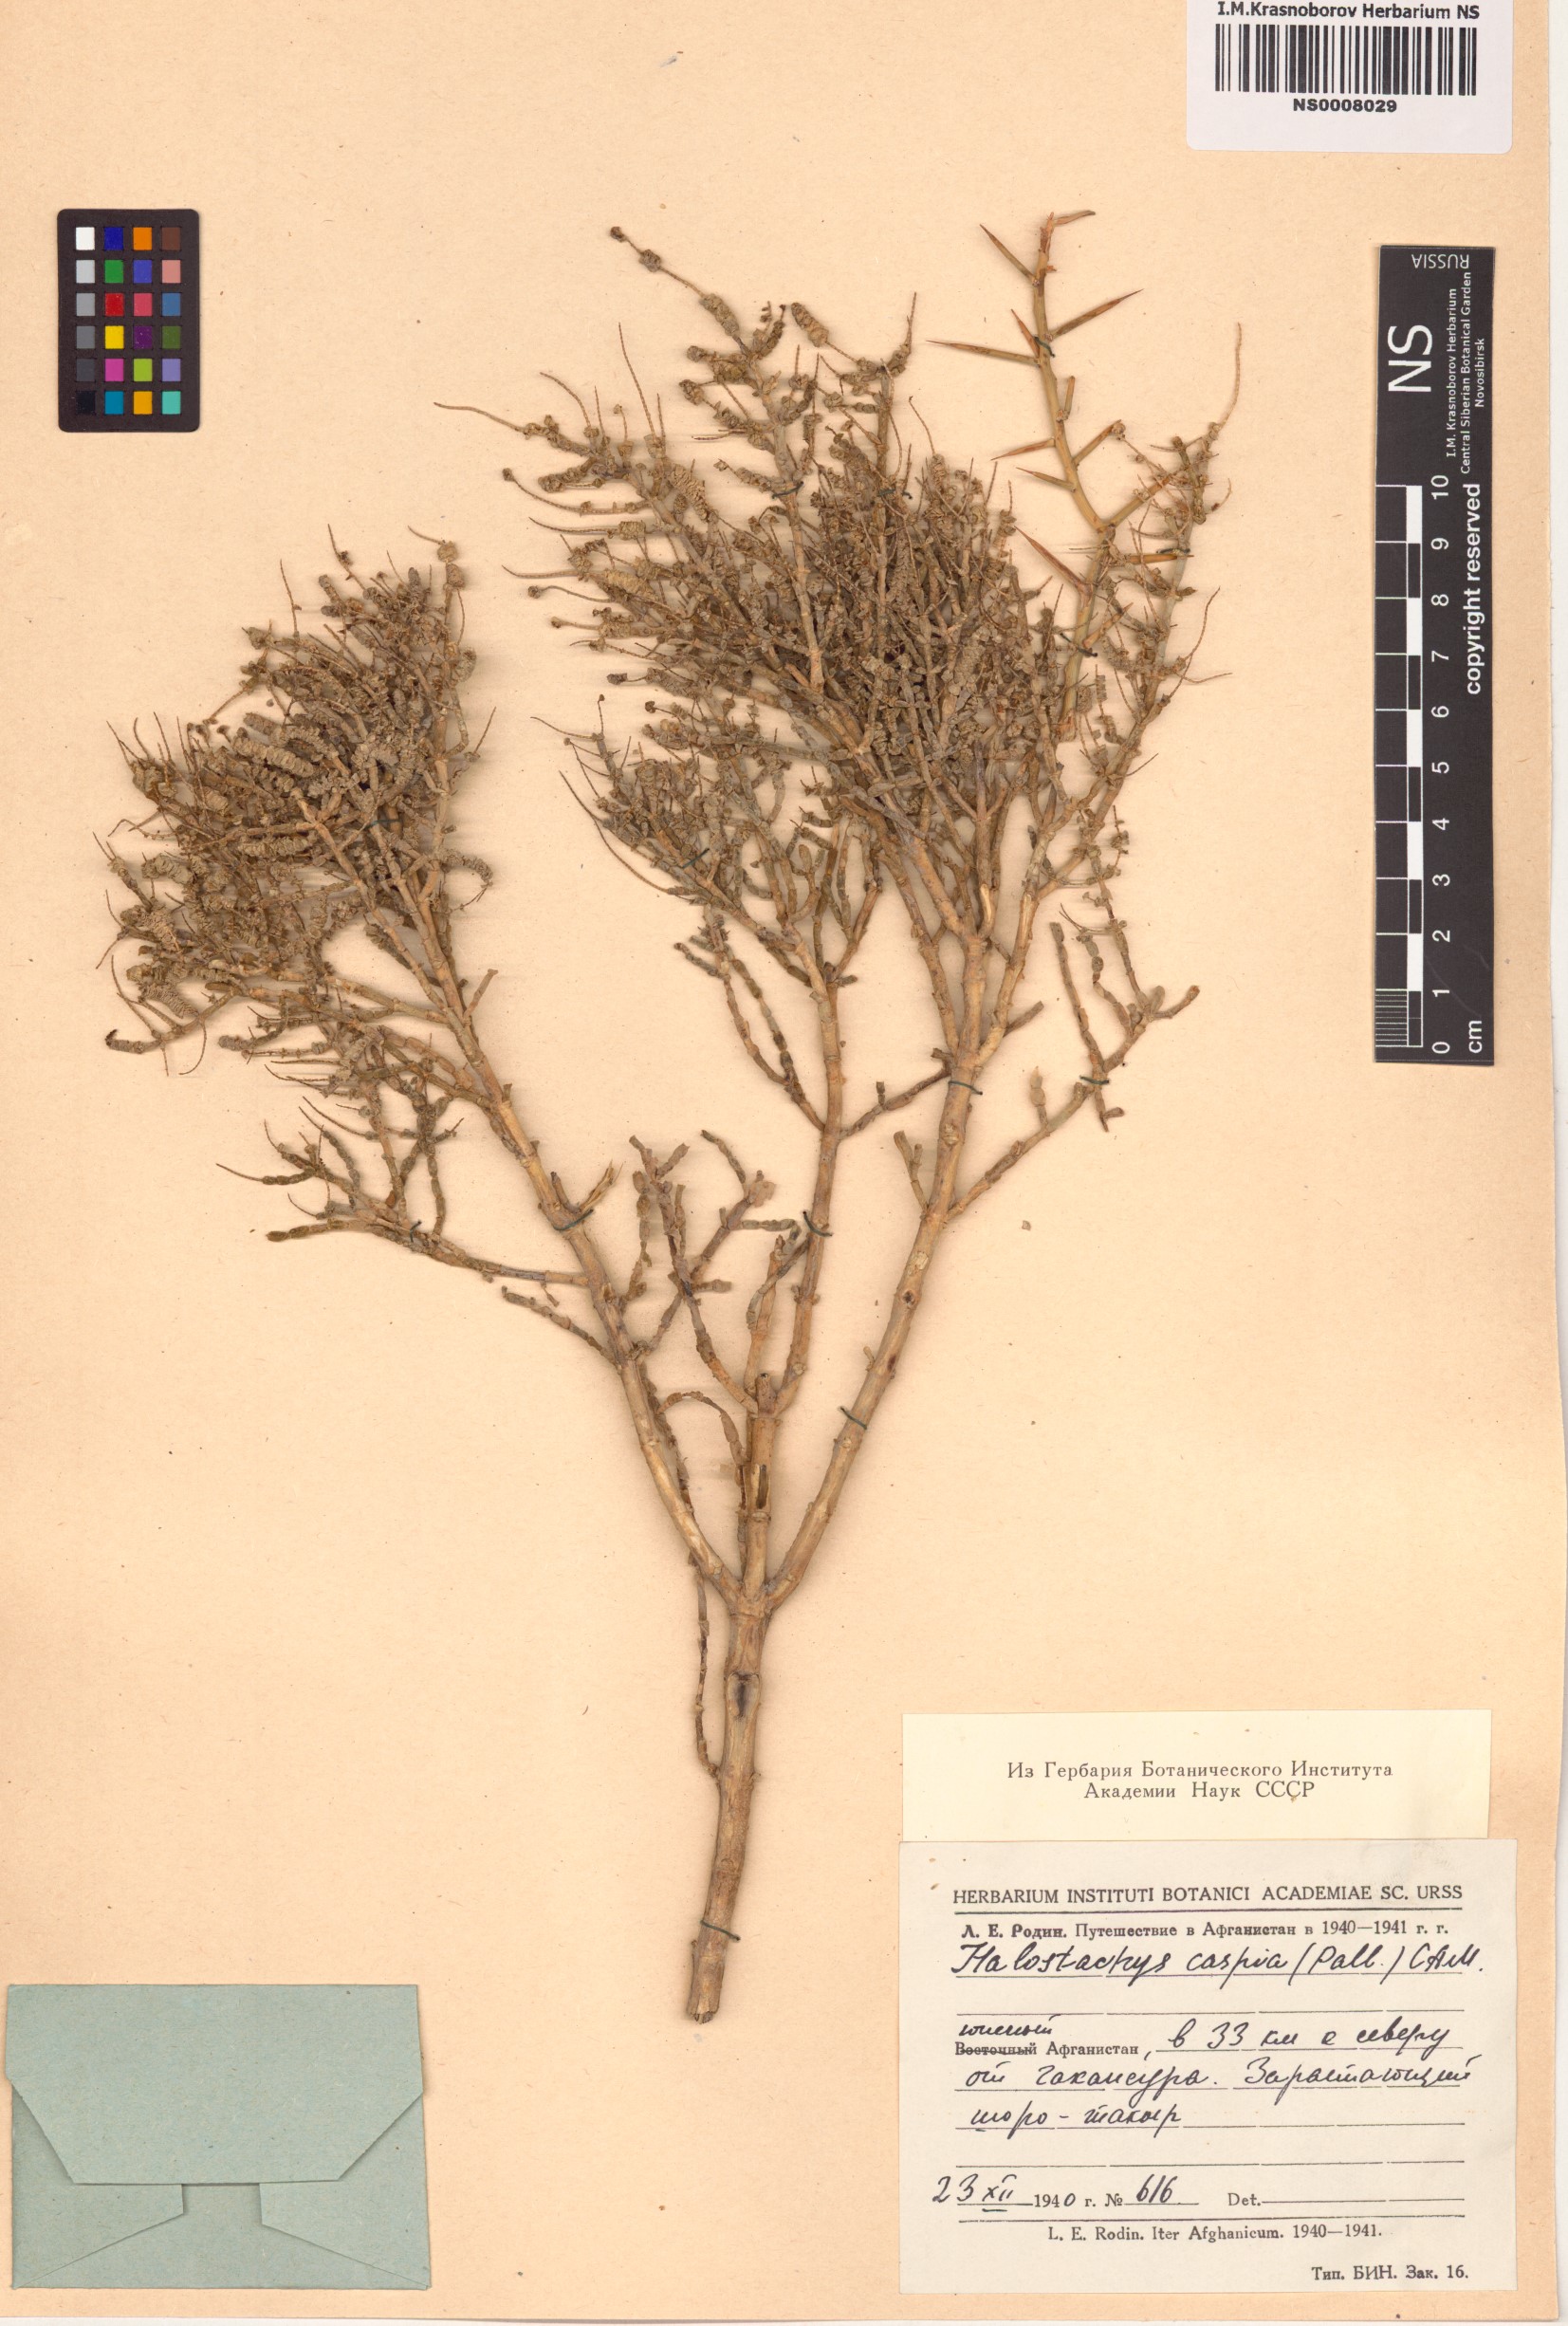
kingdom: Plantae
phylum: Tracheophyta
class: Magnoliopsida
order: Caryophyllales
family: Amaranthaceae
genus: Halostachys
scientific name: Halostachys caspica
